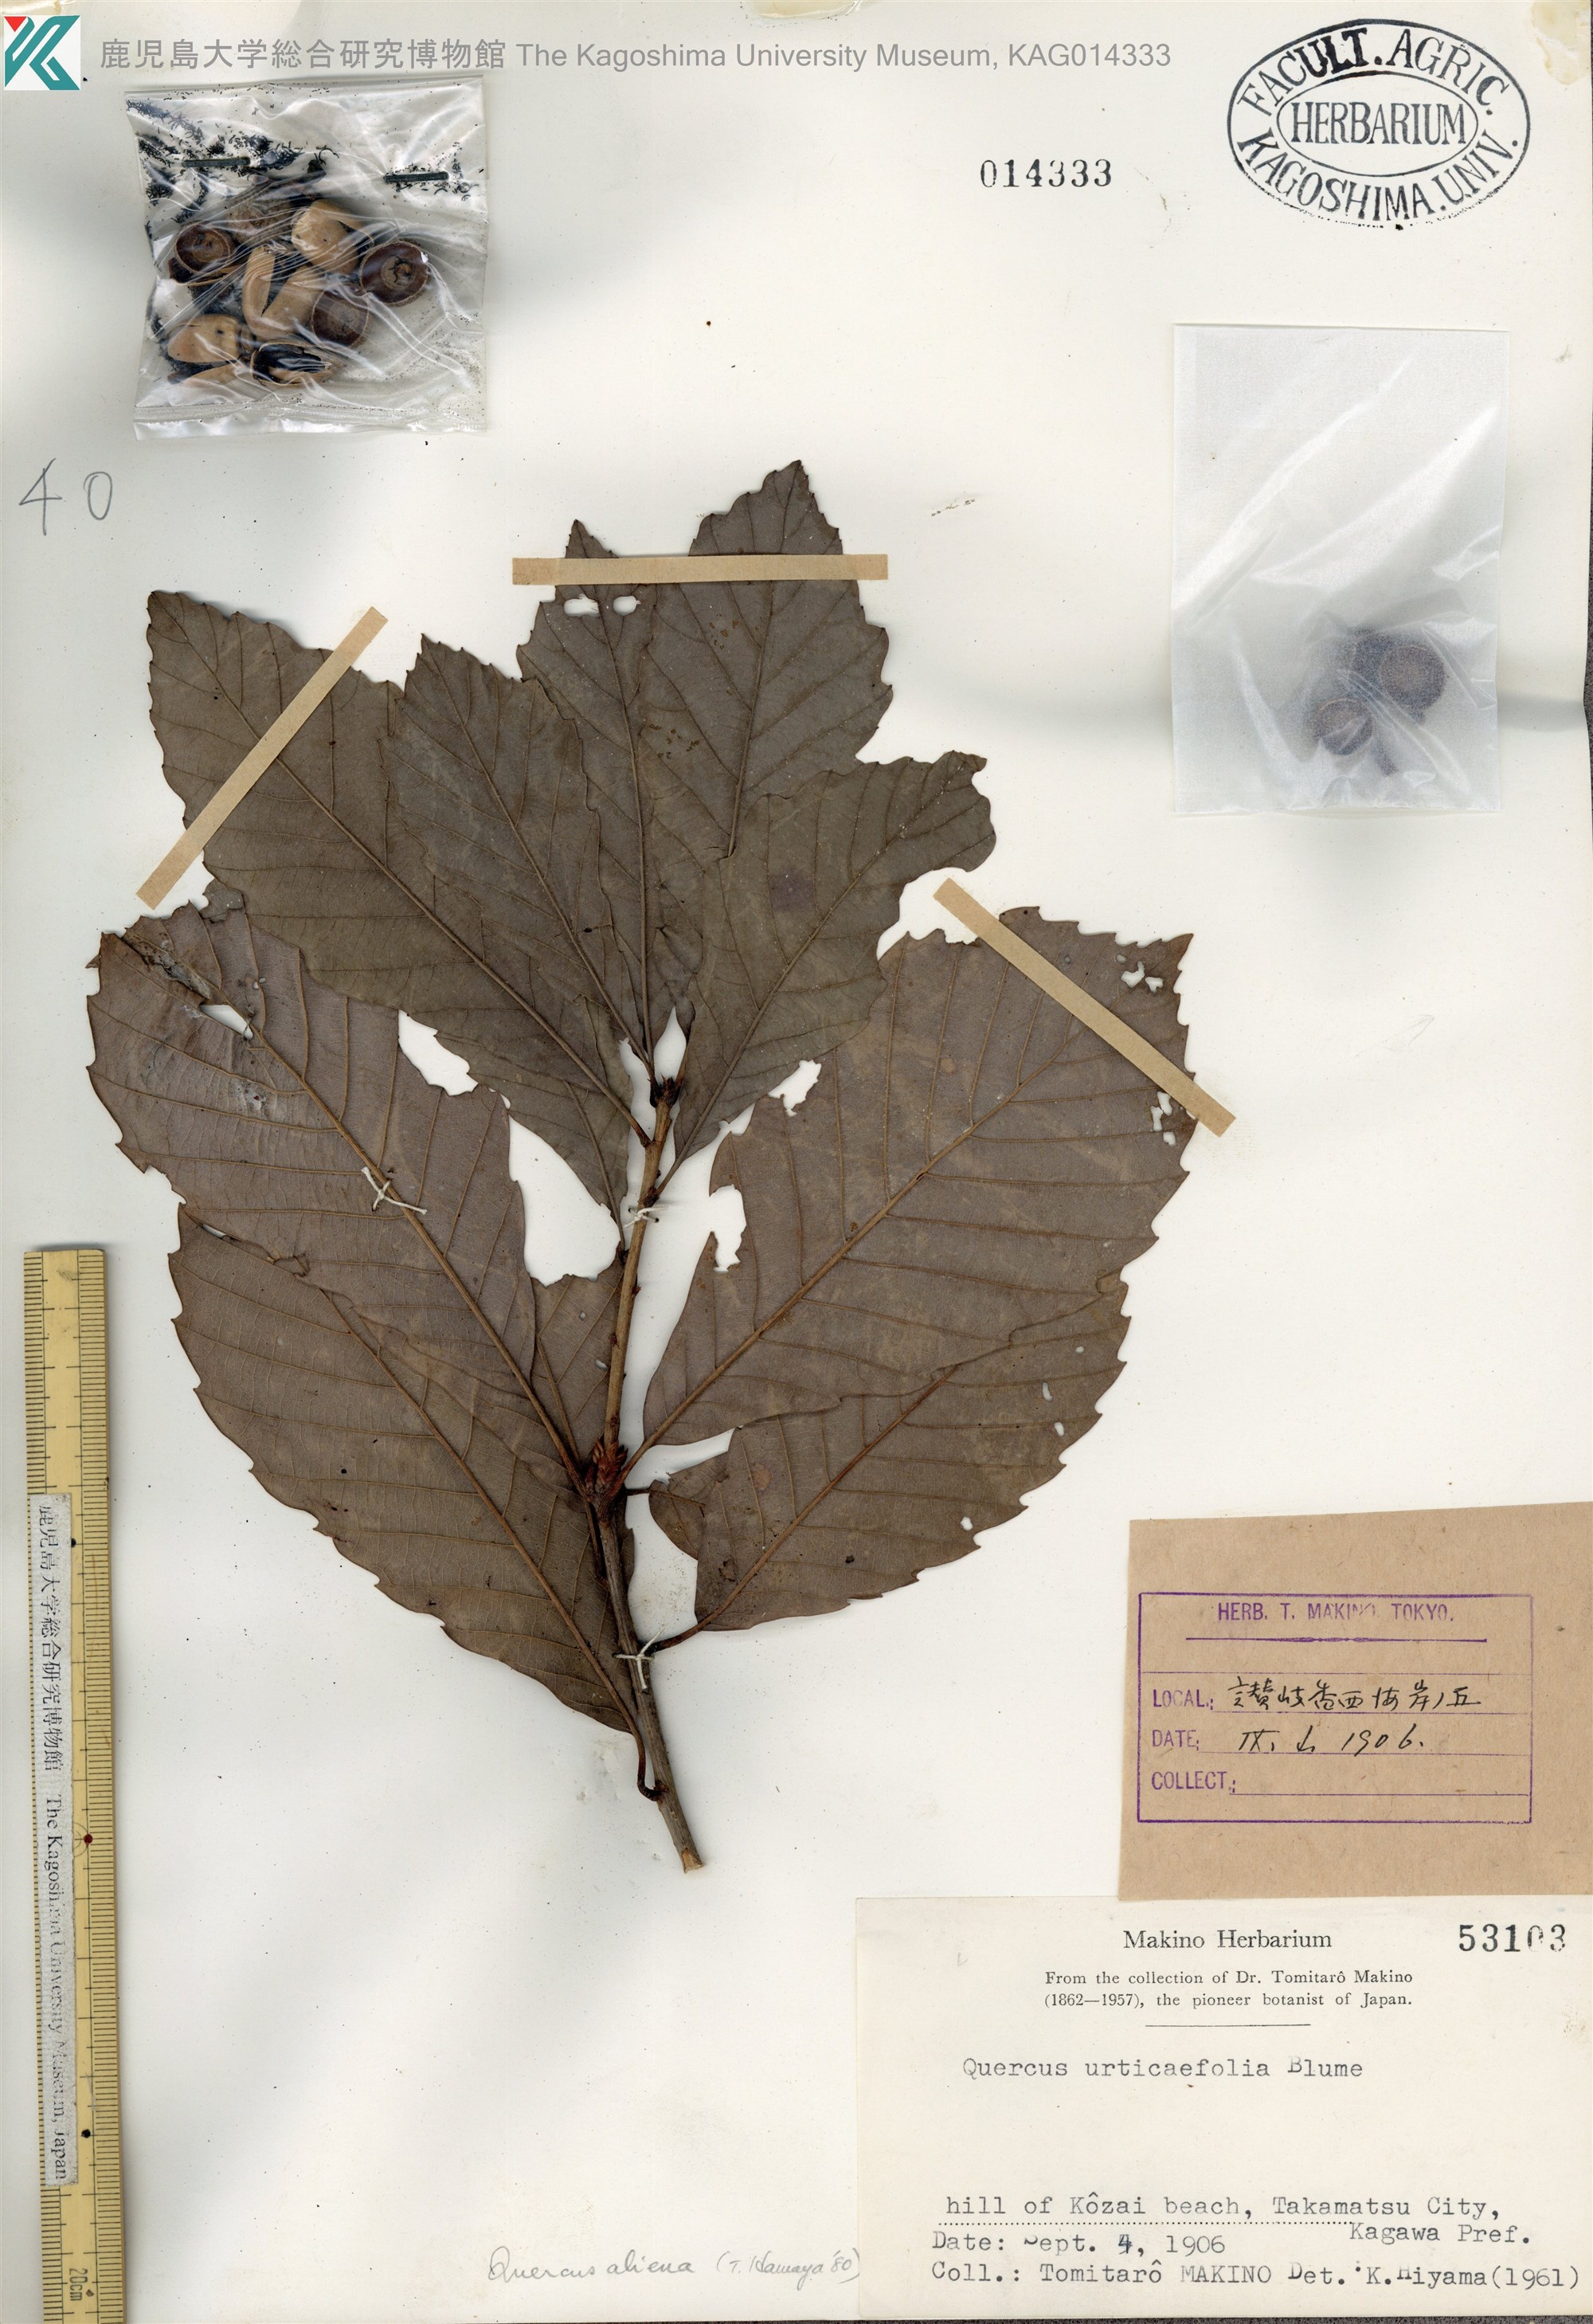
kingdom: Plantae
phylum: Tracheophyta
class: Magnoliopsida
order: Fagales
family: Fagaceae
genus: Quercus
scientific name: Quercus serrata
